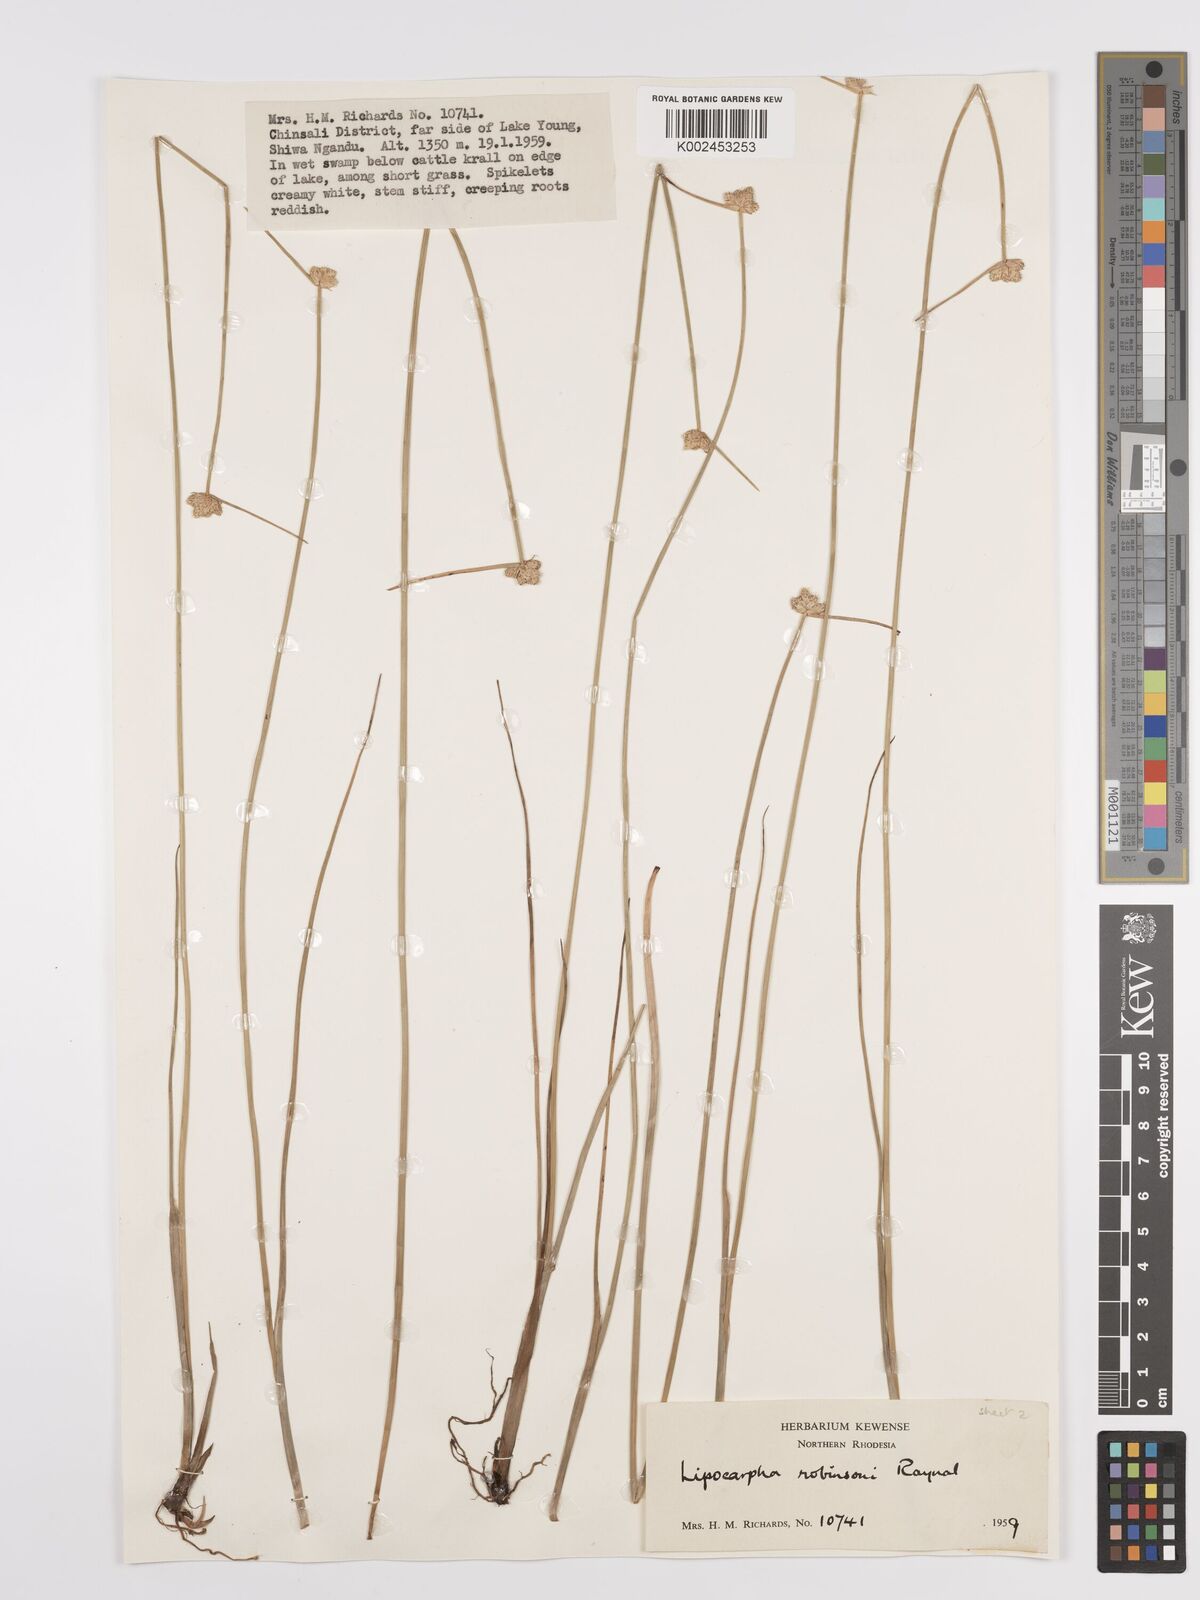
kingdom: Plantae
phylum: Tracheophyta
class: Liliopsida
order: Poales
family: Cyperaceae
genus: Cyperus
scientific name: Cyperus tenuiculmis
